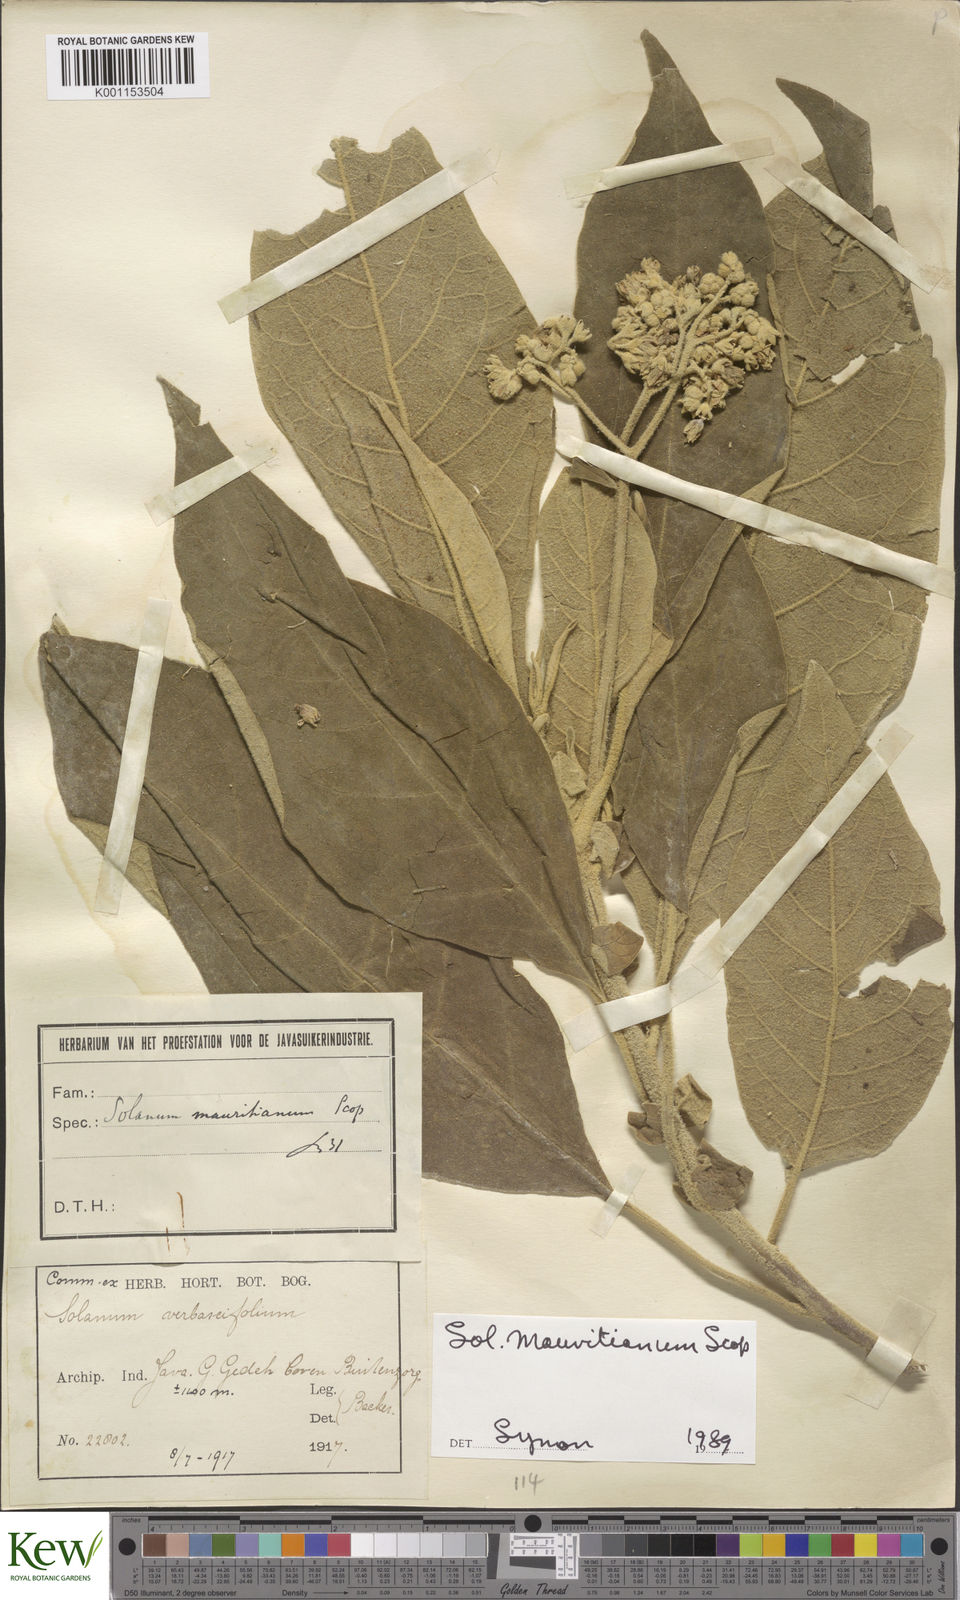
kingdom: Plantae
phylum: Tracheophyta
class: Magnoliopsida
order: Solanales
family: Solanaceae
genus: Solanum
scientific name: Solanum mauritianum
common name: Earleaf nightshade
